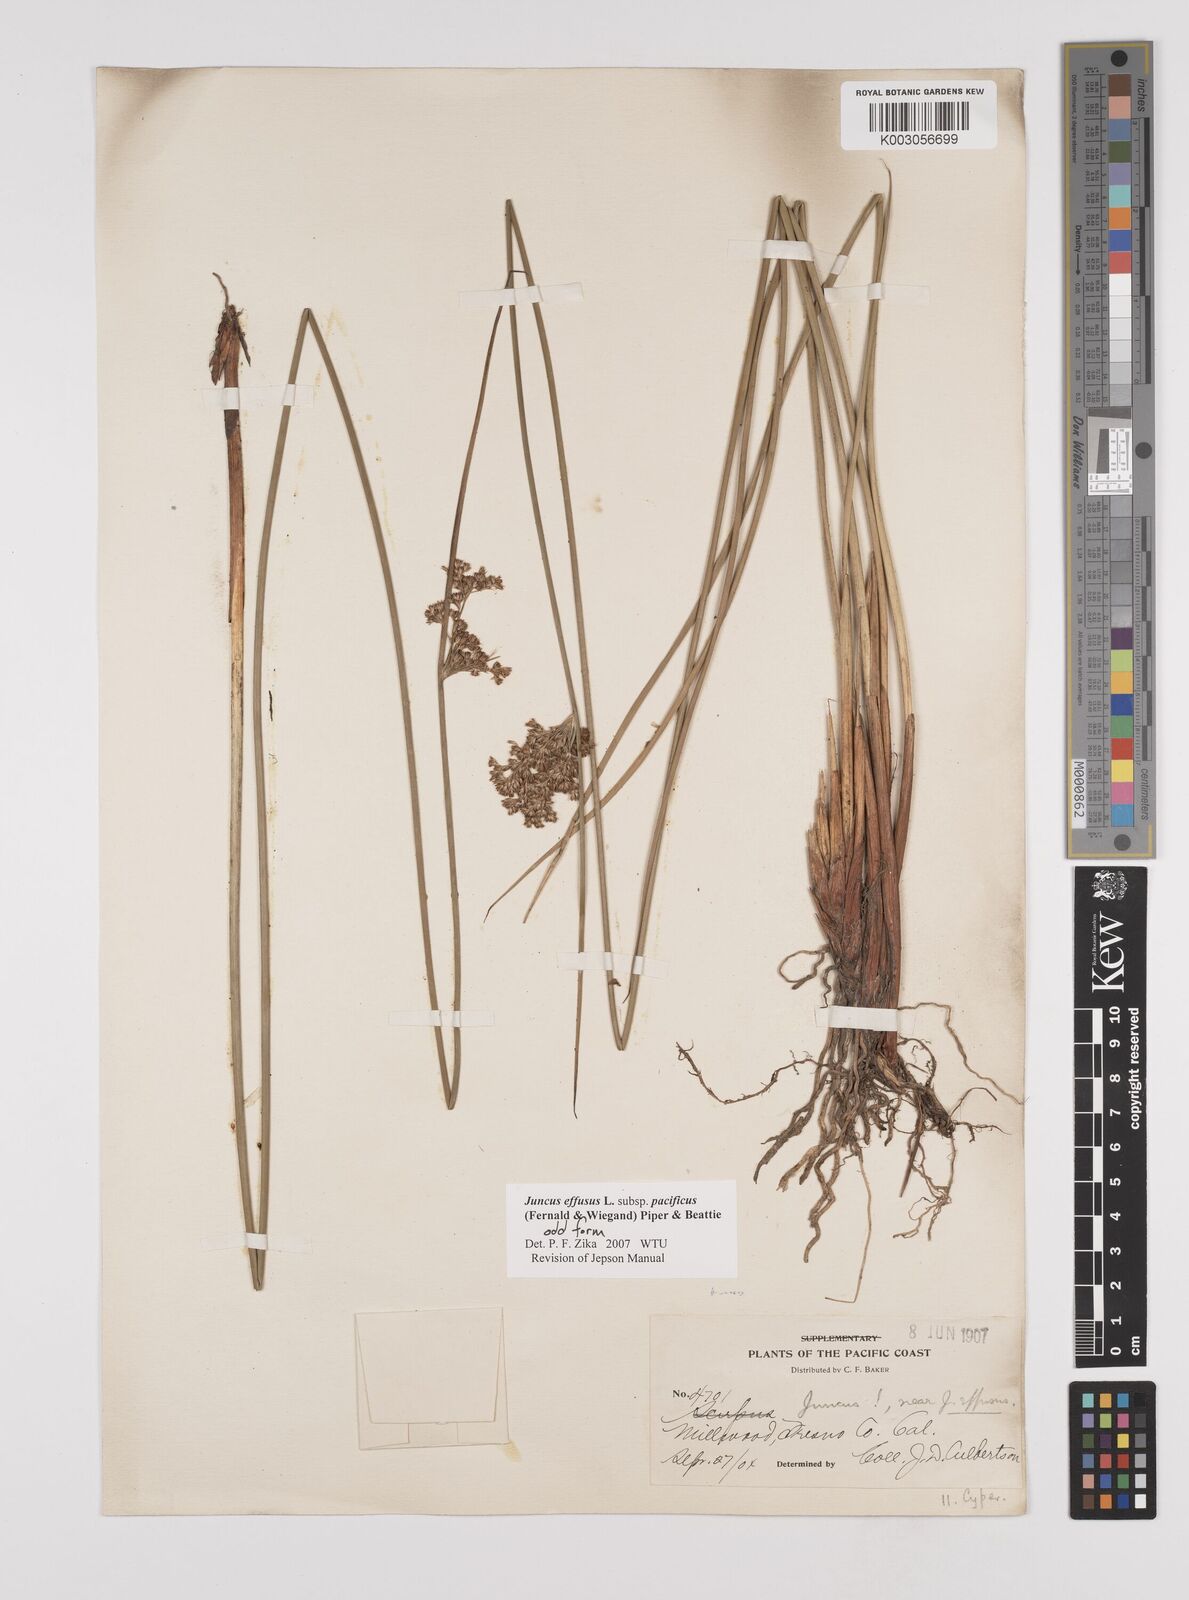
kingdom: Plantae
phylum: Tracheophyta
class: Liliopsida
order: Poales
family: Juncaceae
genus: Juncus
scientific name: Juncus effusus
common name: Soft rush
